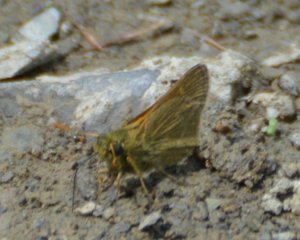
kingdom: Animalia
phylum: Arthropoda
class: Insecta
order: Lepidoptera
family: Hesperiidae
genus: Polites
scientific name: Polites themistocles
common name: Tawny-edged Skipper
